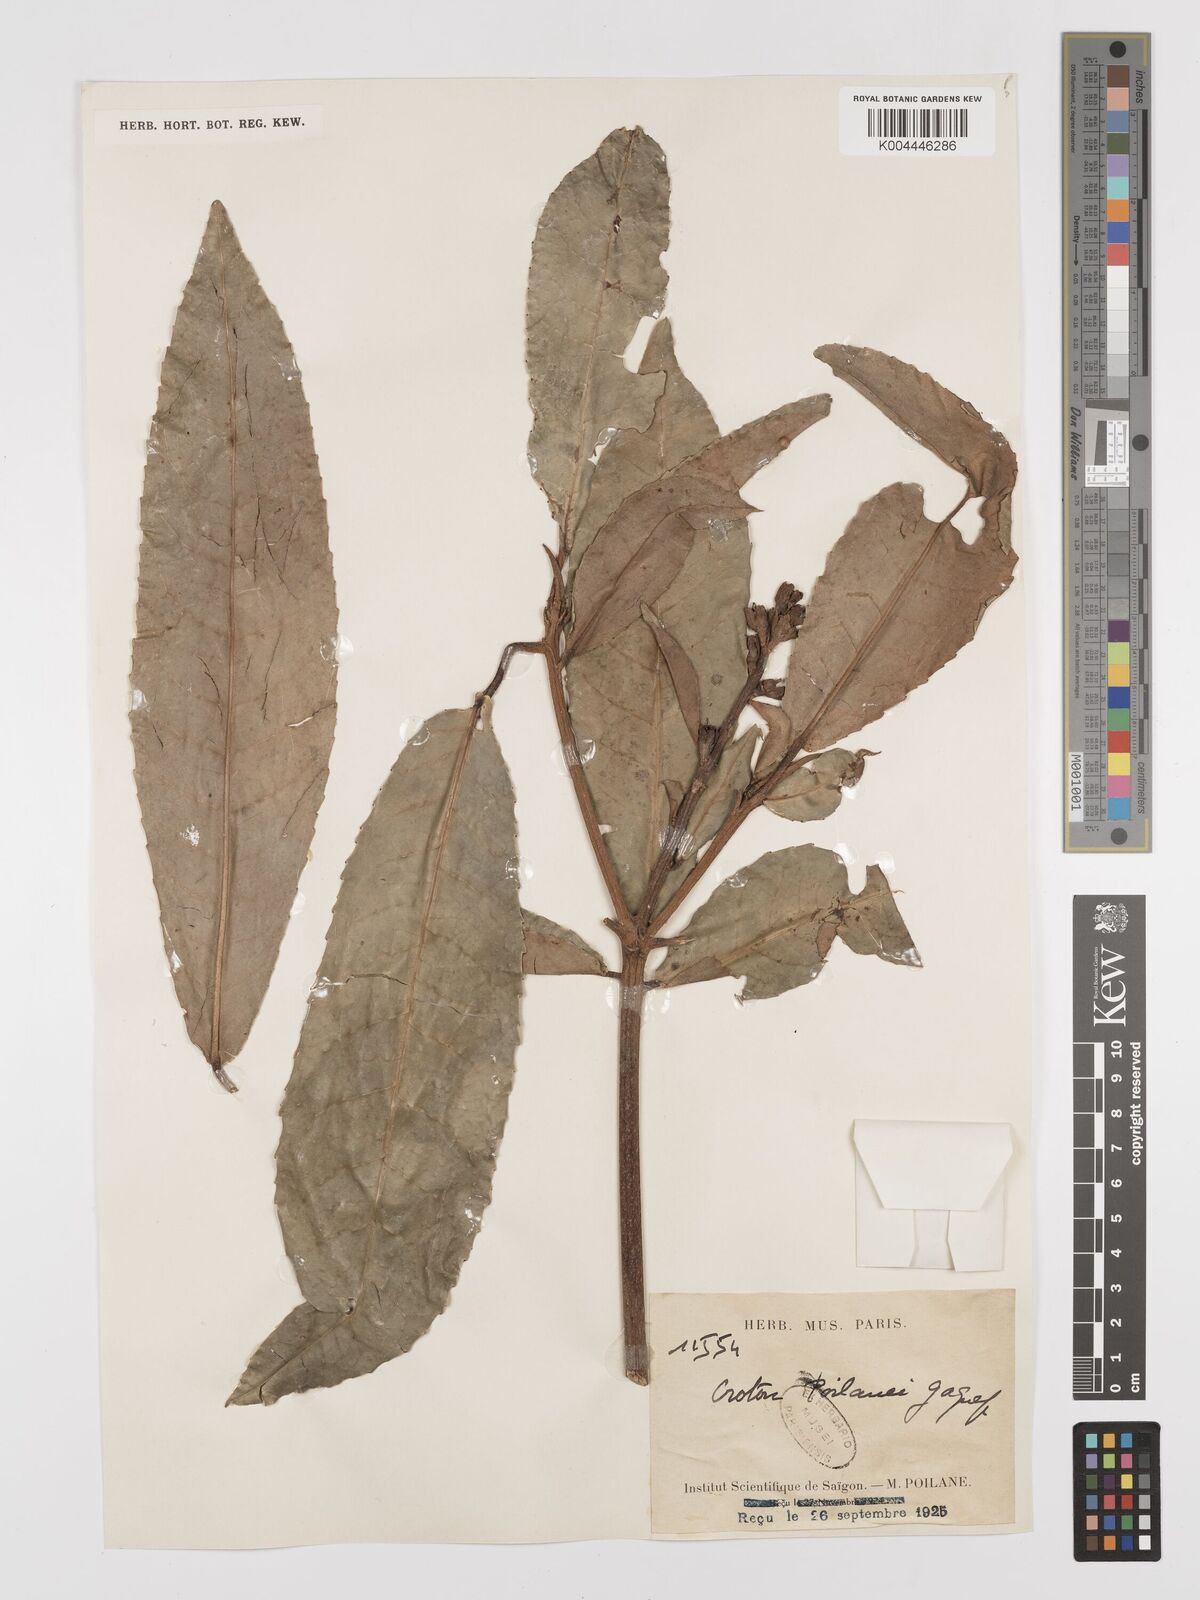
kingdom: Plantae
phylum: Tracheophyta
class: Magnoliopsida
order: Malpighiales
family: Euphorbiaceae
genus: Croton
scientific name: Croton poilanei
